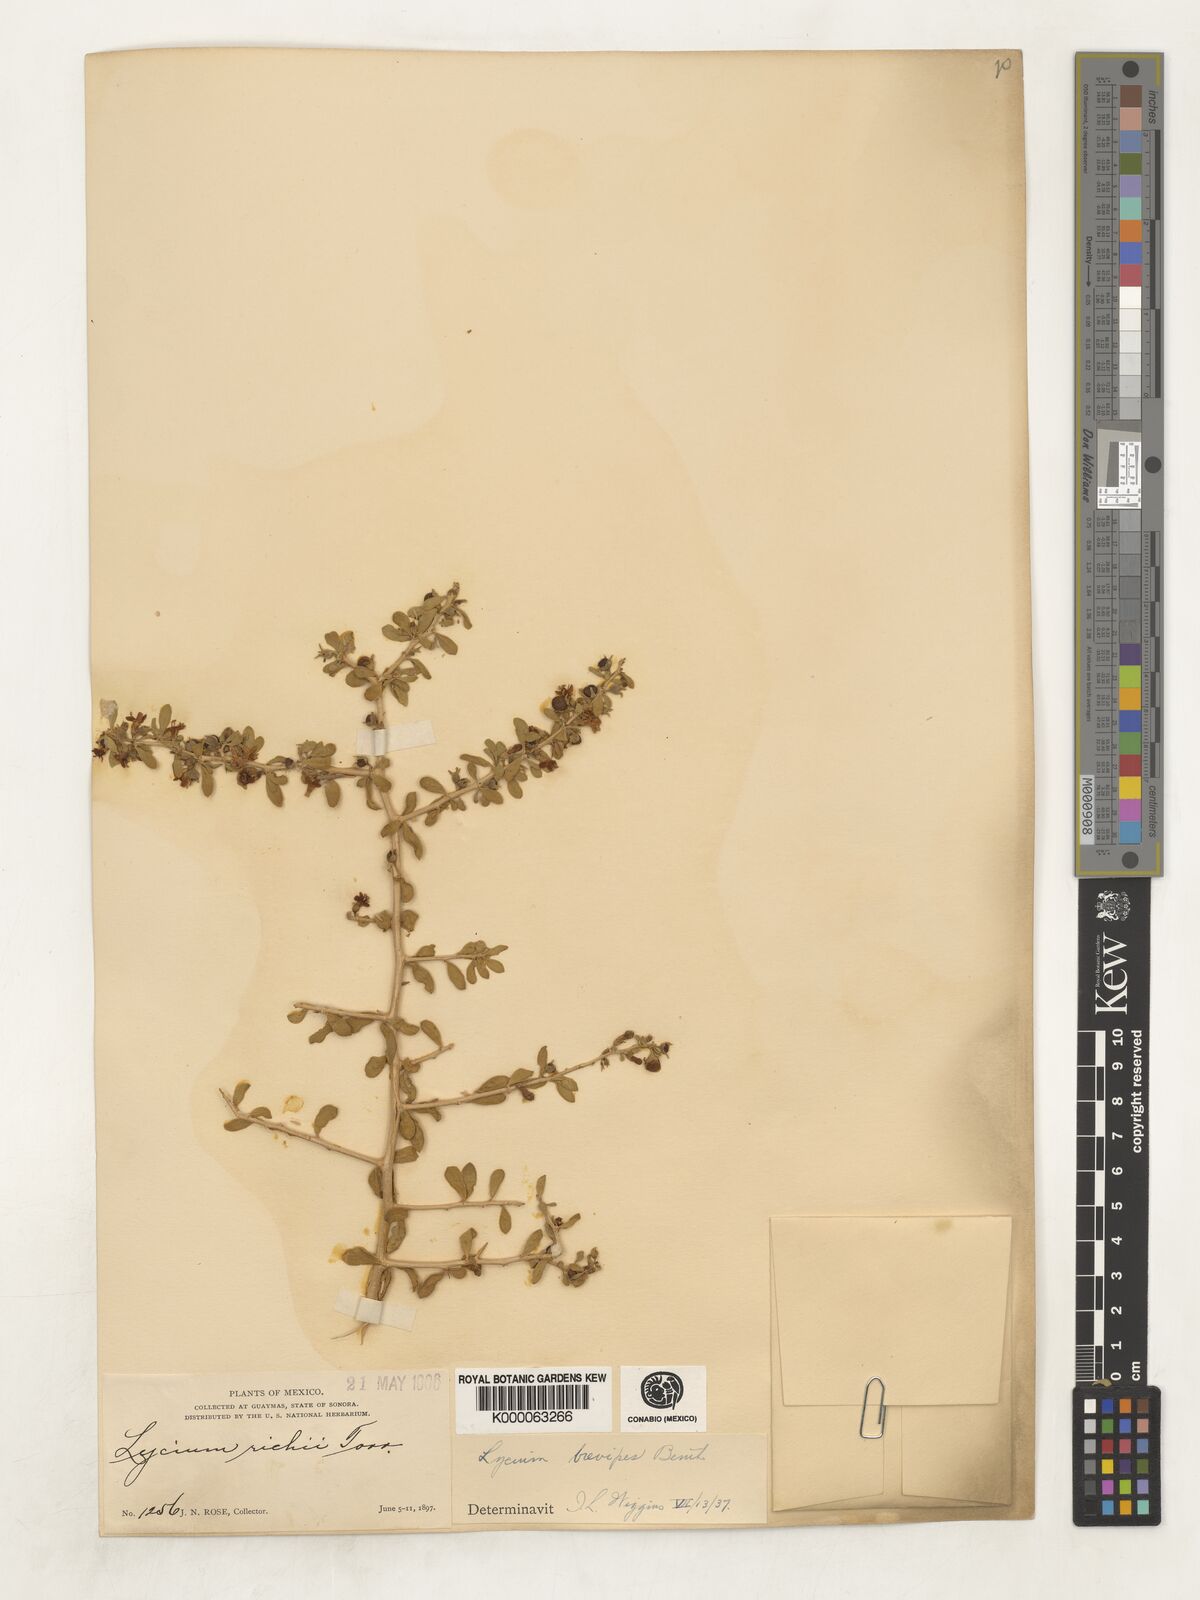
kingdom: Plantae
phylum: Tracheophyta
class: Magnoliopsida
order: Solanales
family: Solanaceae
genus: Lycium
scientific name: Lycium brevipes
